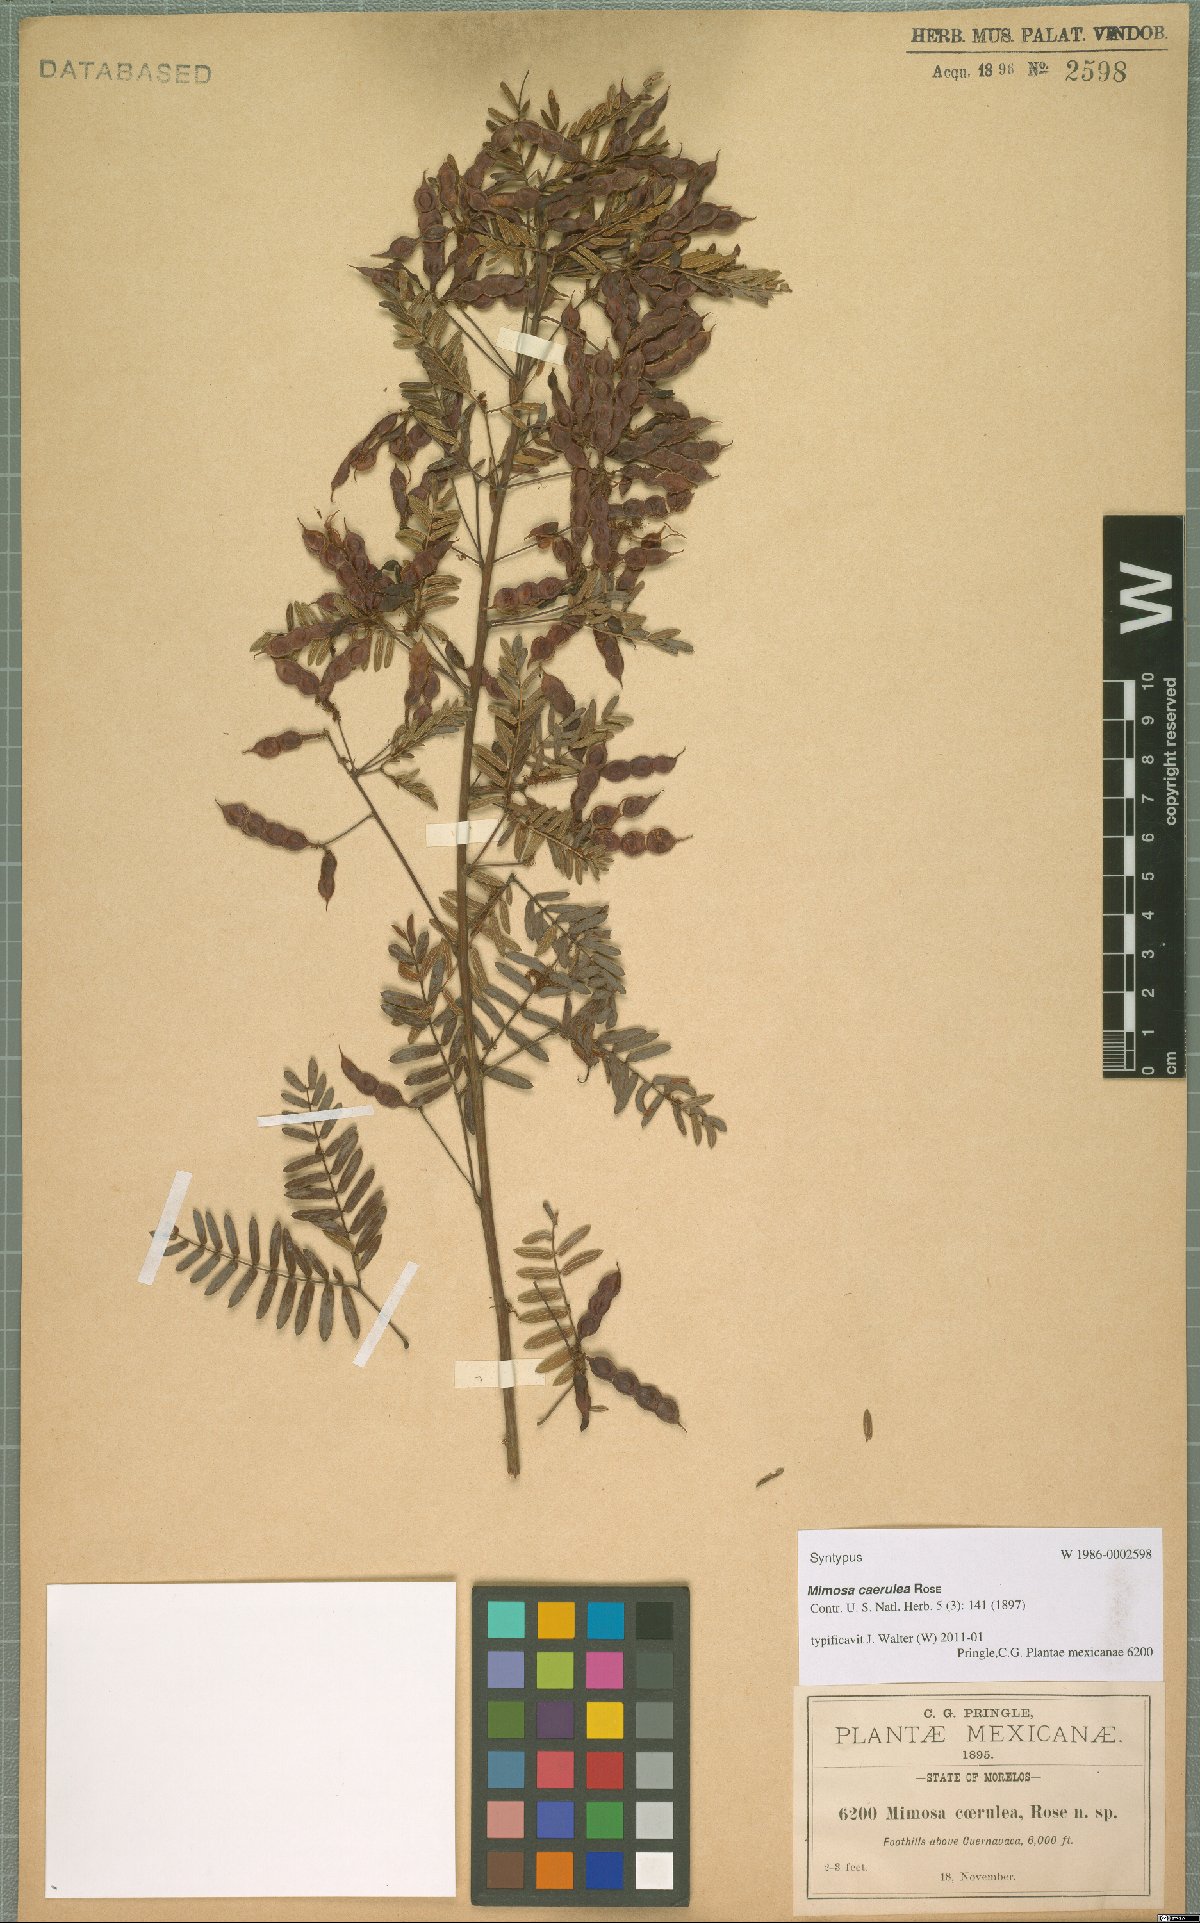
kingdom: Plantae
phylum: Tracheophyta
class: Magnoliopsida
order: Fabales
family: Fabaceae
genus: Mimosa
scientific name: Mimosa caerulea
